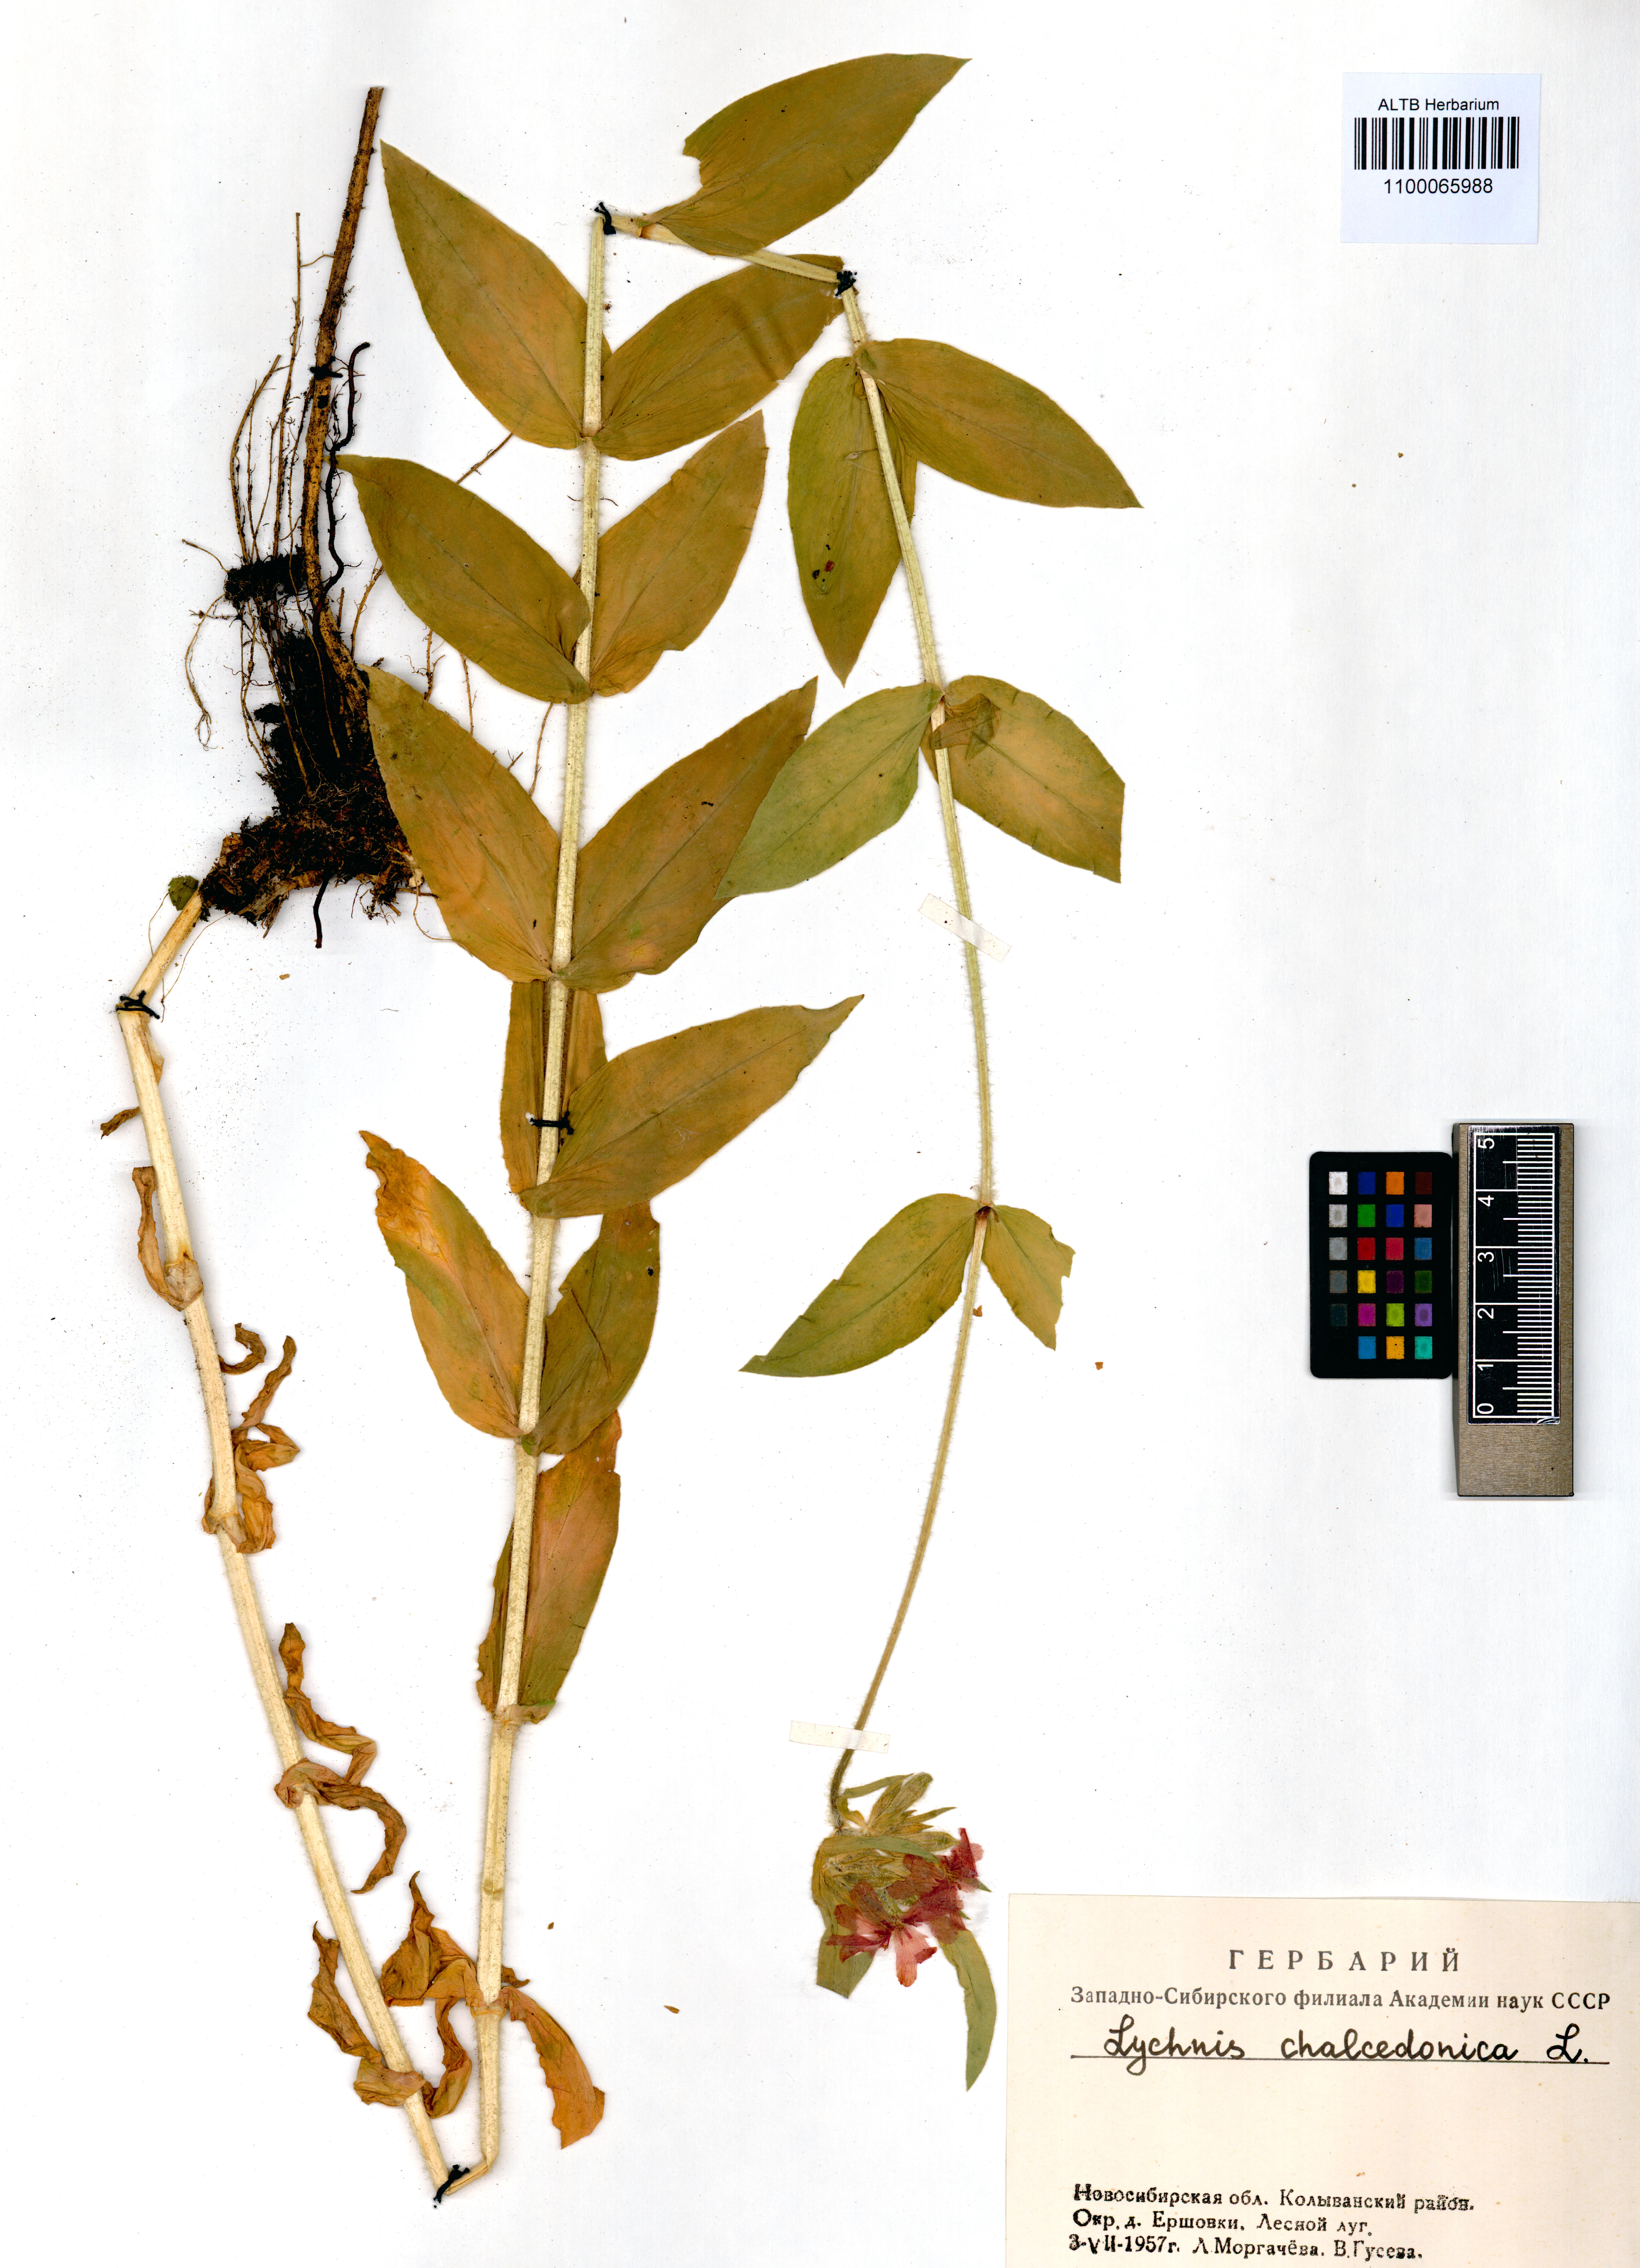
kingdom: Plantae
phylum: Tracheophyta
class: Magnoliopsida
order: Caryophyllales
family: Caryophyllaceae
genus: Silene
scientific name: Silene chalcedonica
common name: Maltese-cross
